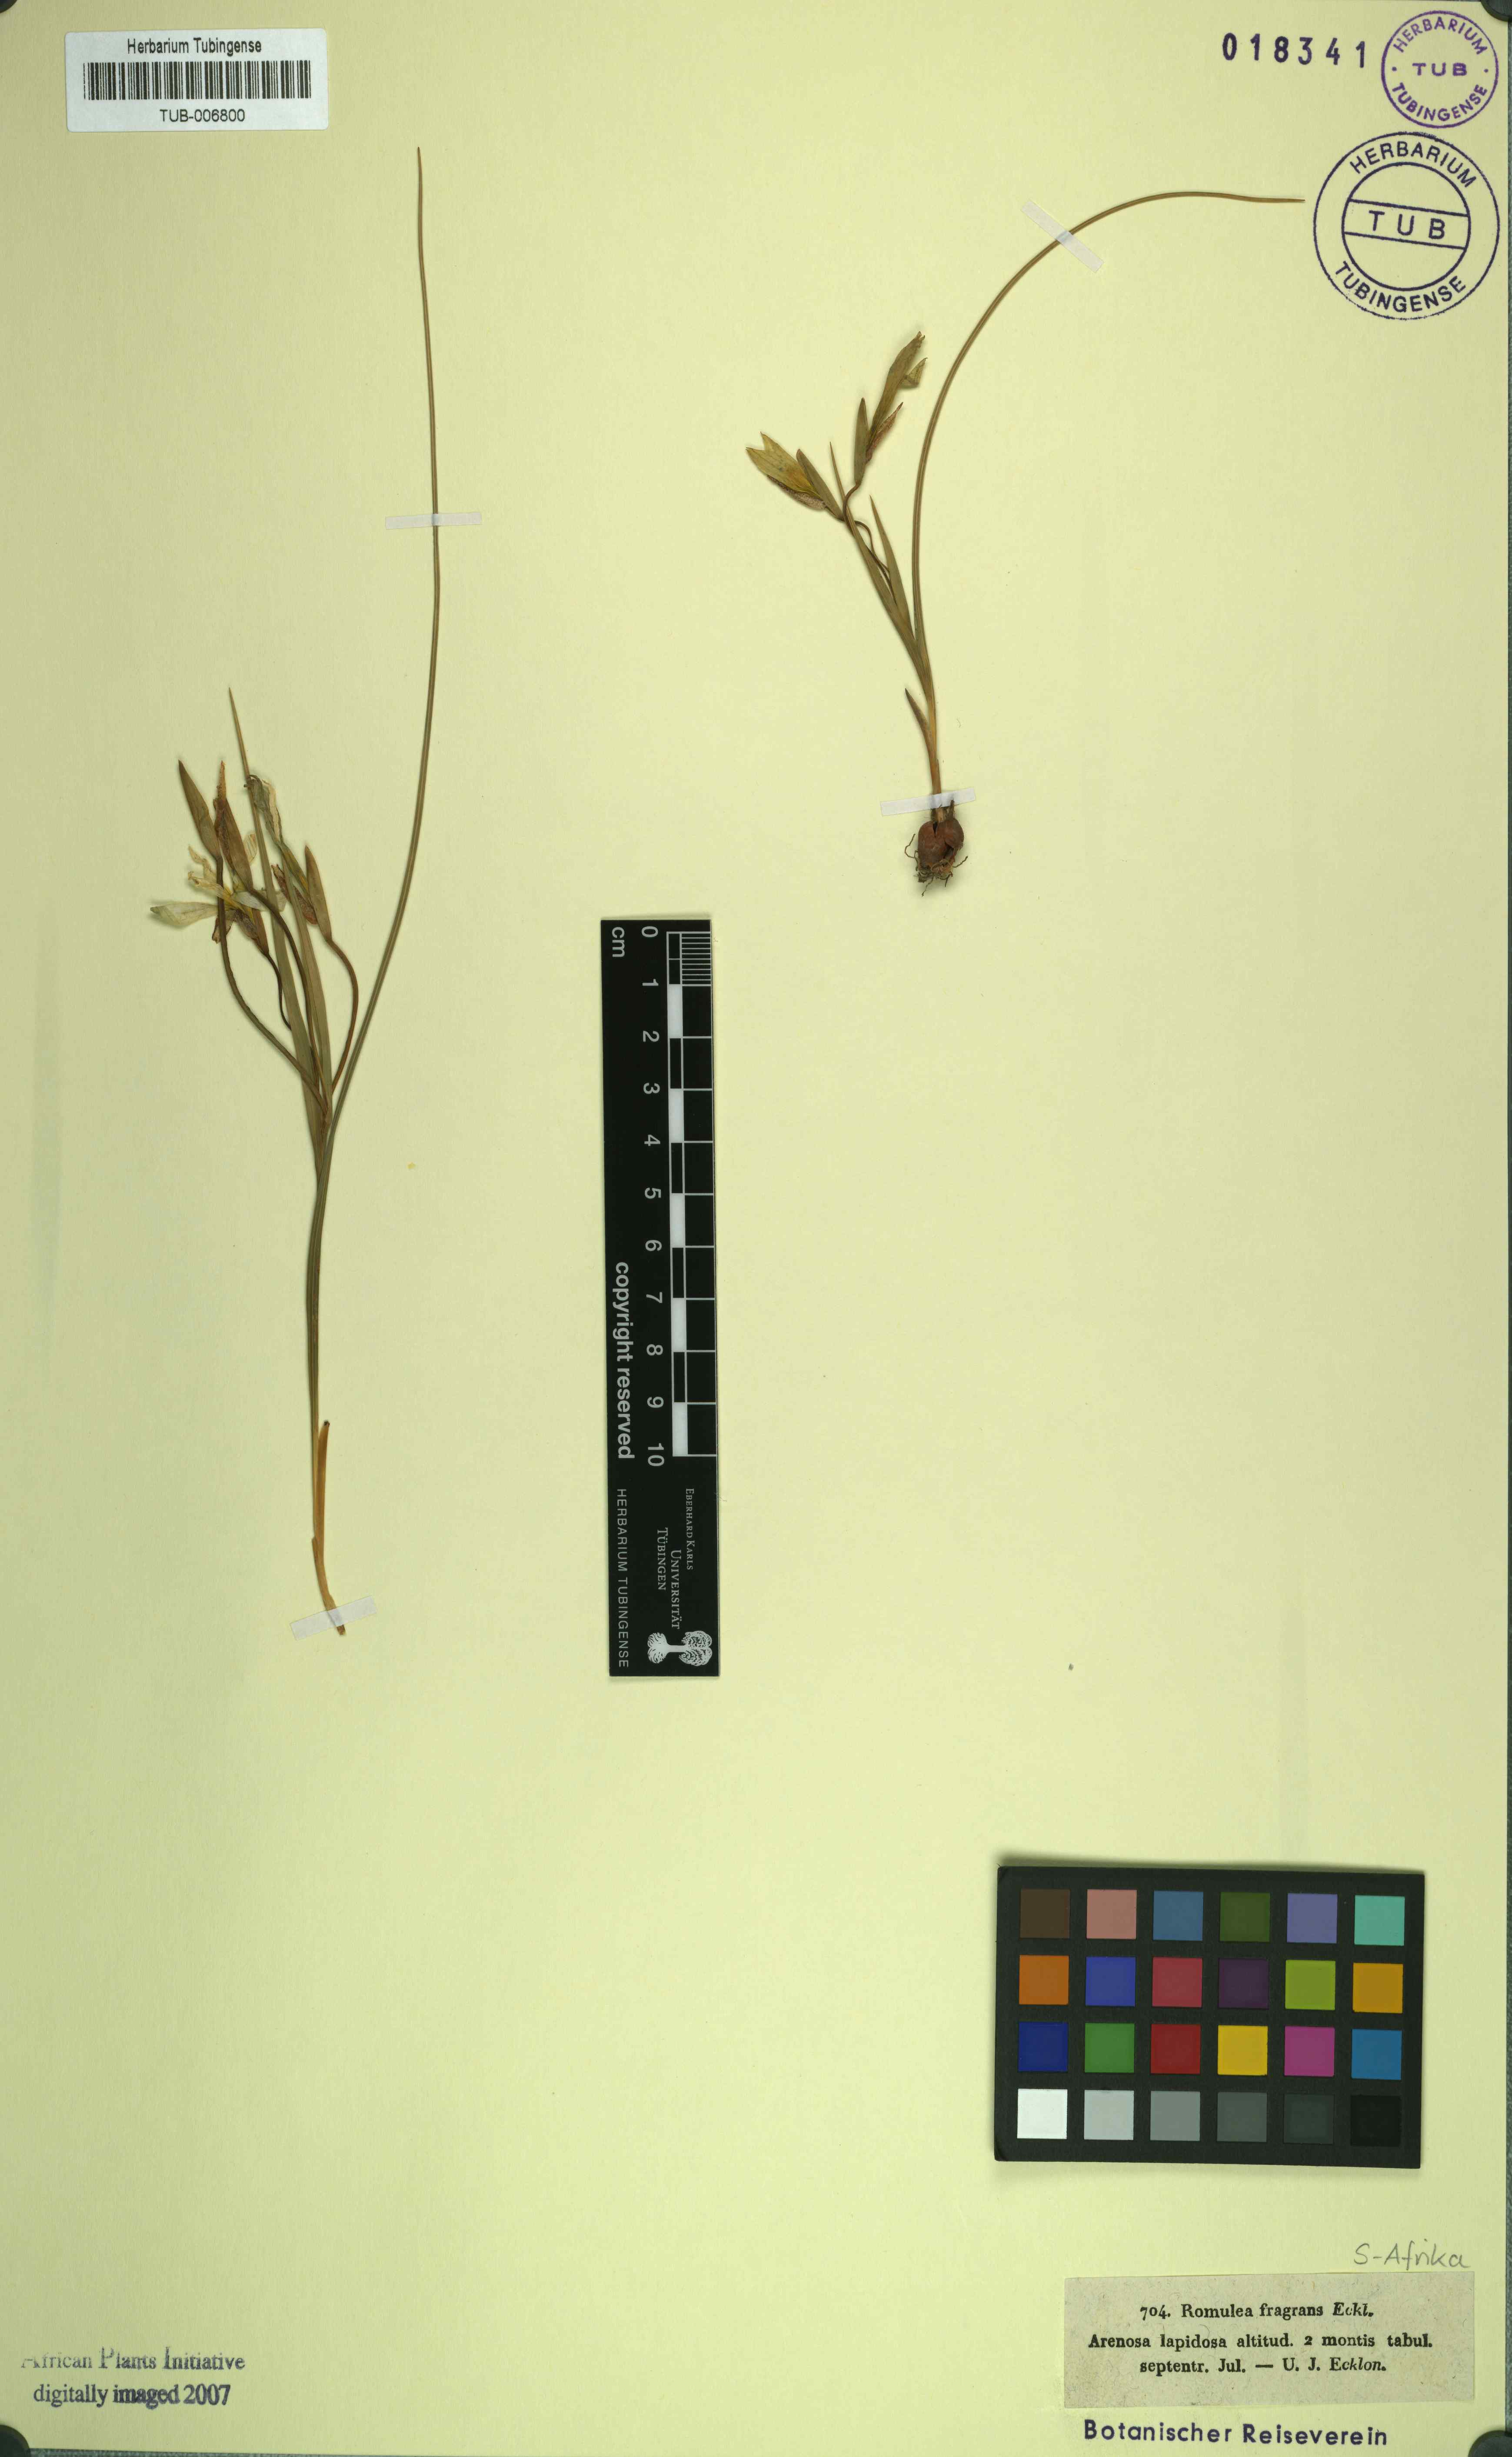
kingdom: Plantae
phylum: Tracheophyta
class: Liliopsida
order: Asparagales
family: Iridaceae
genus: Sparaxis
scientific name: Sparaxis fragrans
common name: Fragrant wandflower
